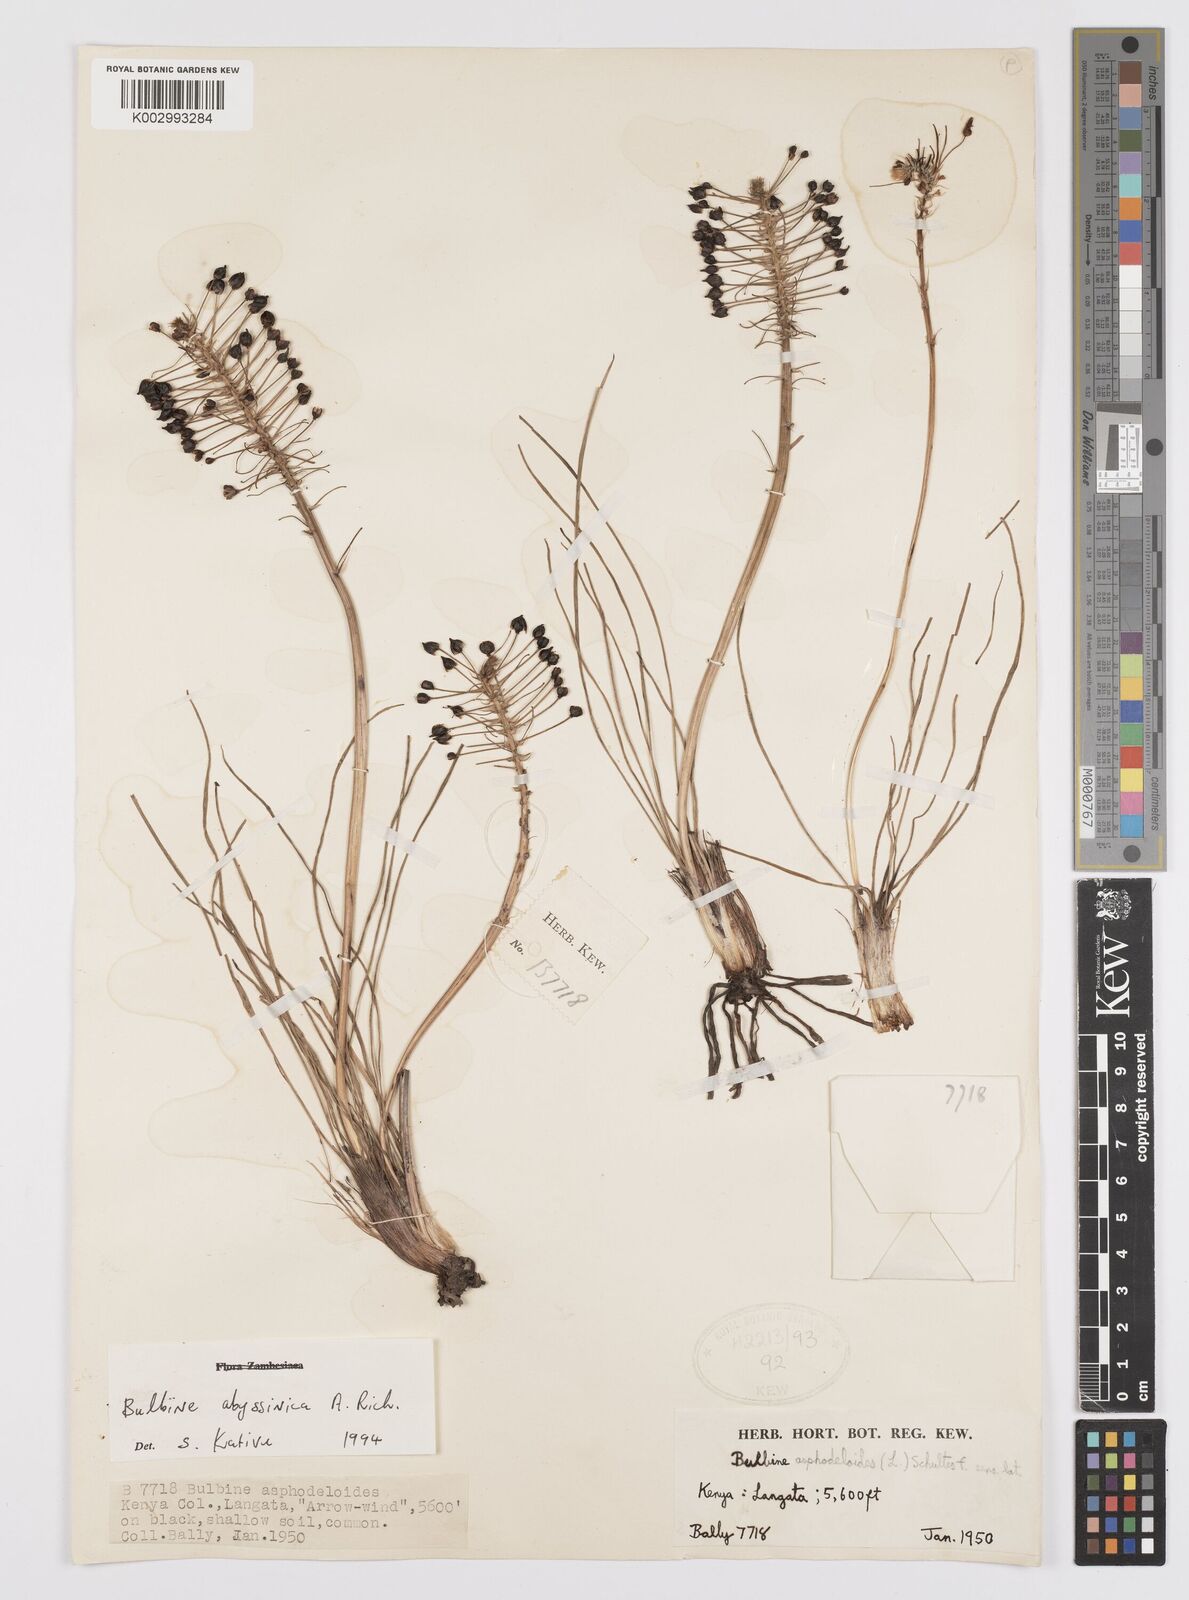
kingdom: Plantae
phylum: Tracheophyta
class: Liliopsida
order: Asparagales
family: Asphodelaceae
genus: Bulbine
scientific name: Bulbine abyssinica
